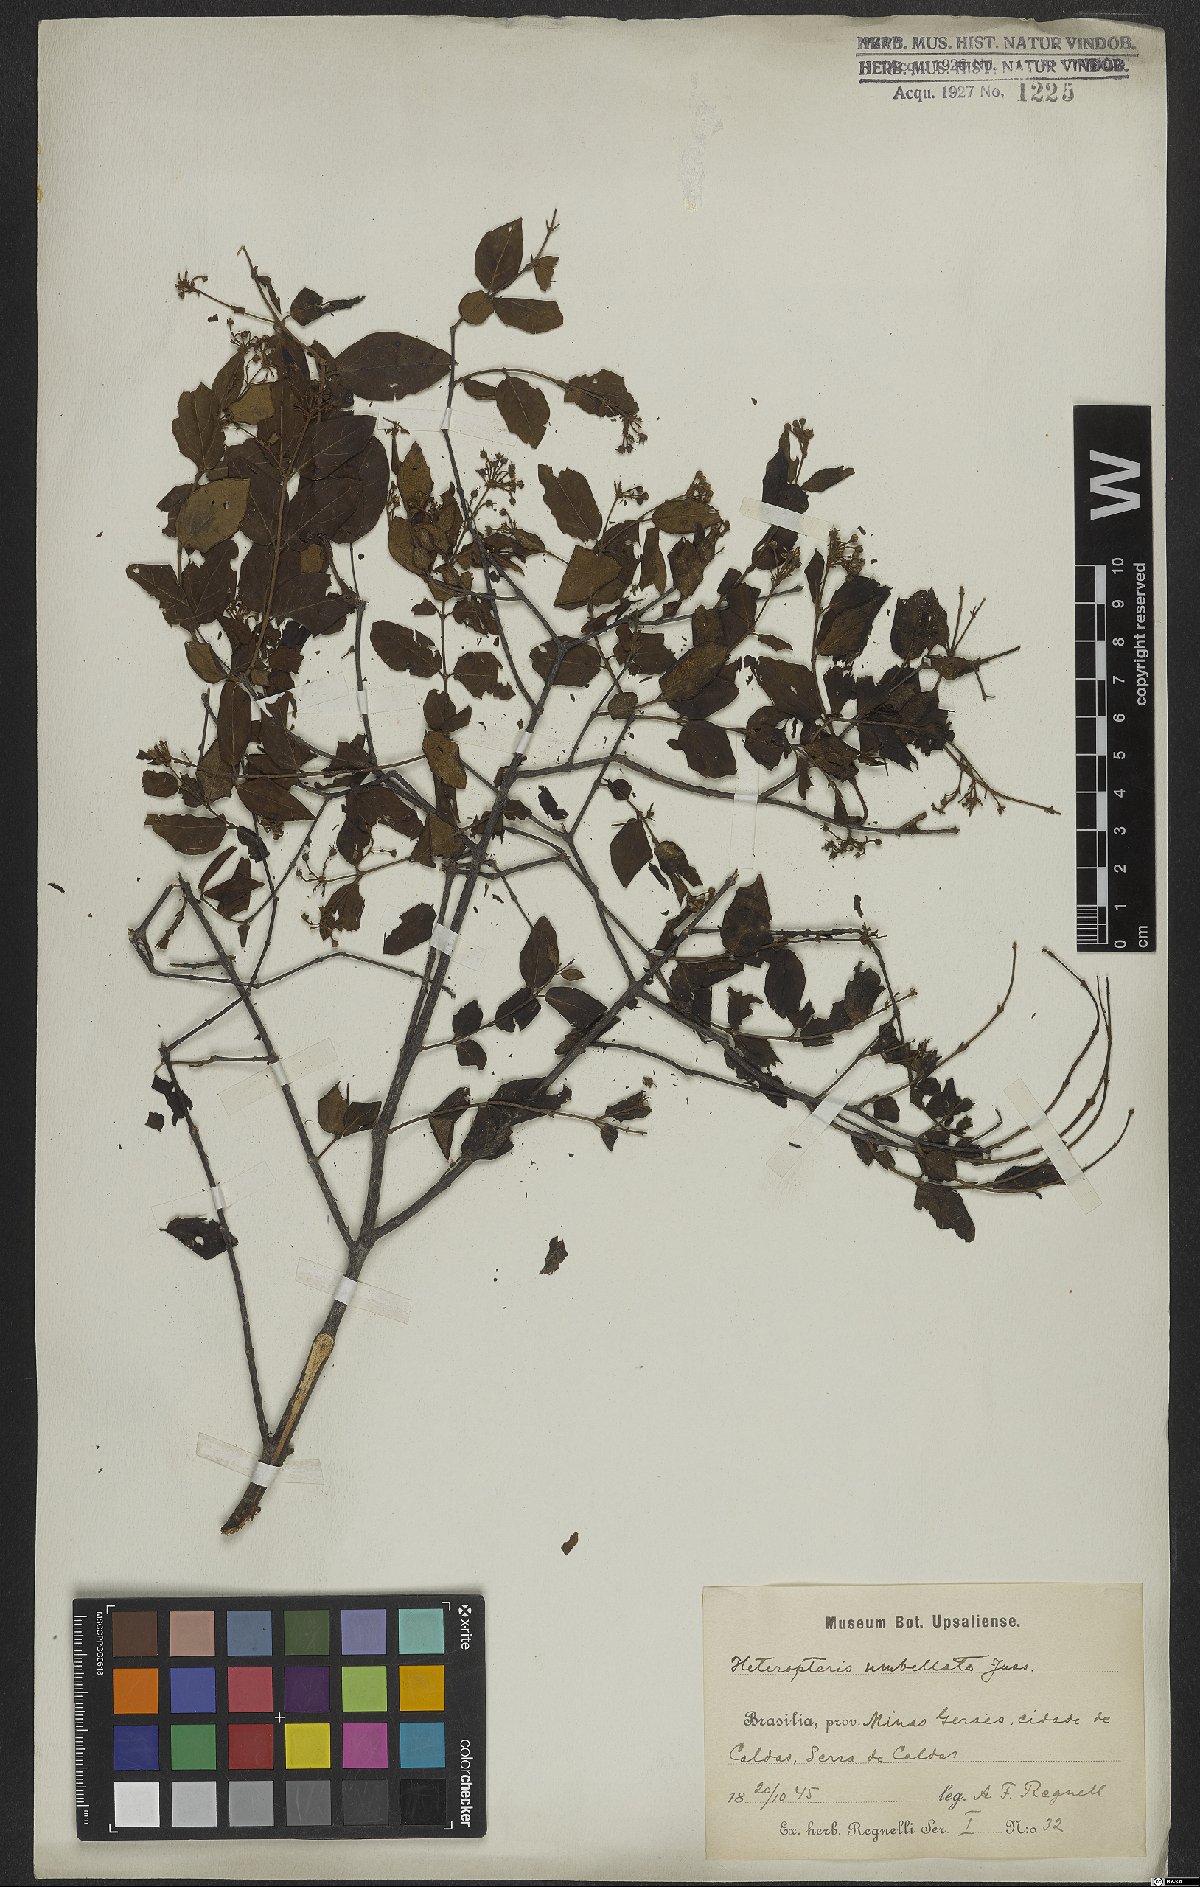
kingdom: Plantae
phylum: Tracheophyta
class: Magnoliopsida
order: Malpighiales
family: Malpighiaceae
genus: Heteropterys
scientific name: Heteropterys umbellata
